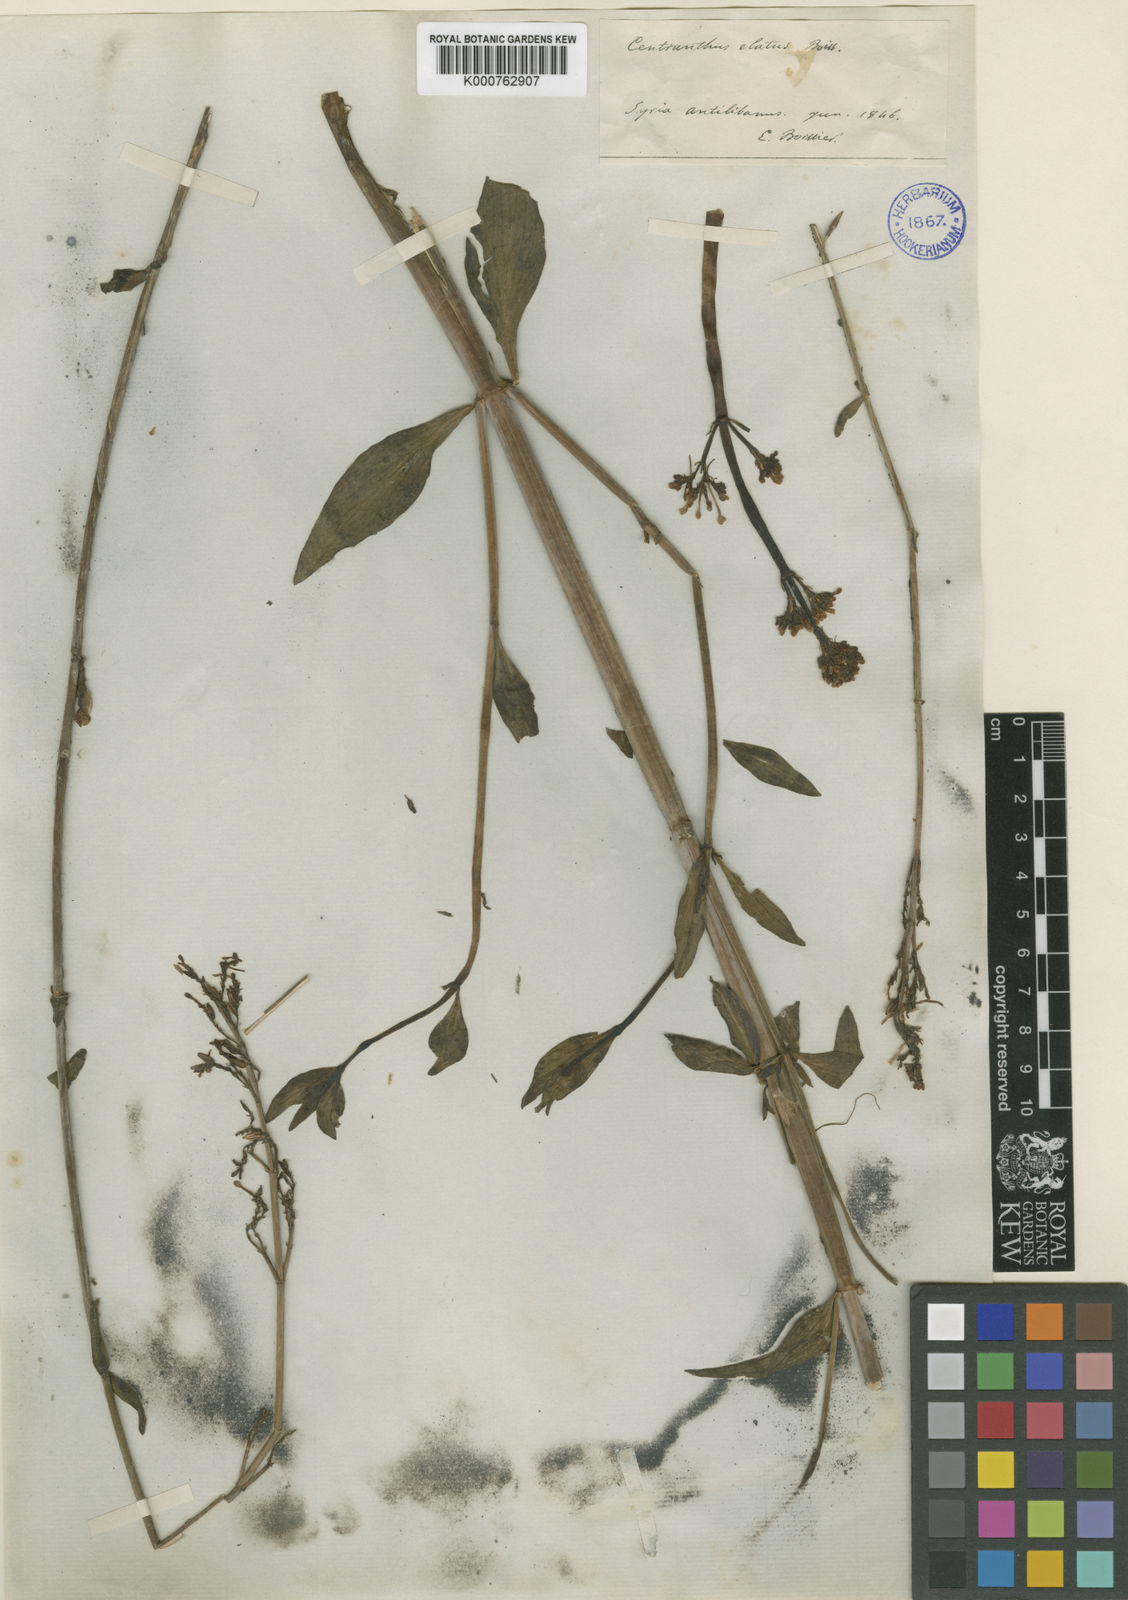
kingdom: Plantae
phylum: Tracheophyta
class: Magnoliopsida
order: Dipsacales
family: Caprifoliaceae
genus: Centranthus
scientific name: Centranthus longiflorus
